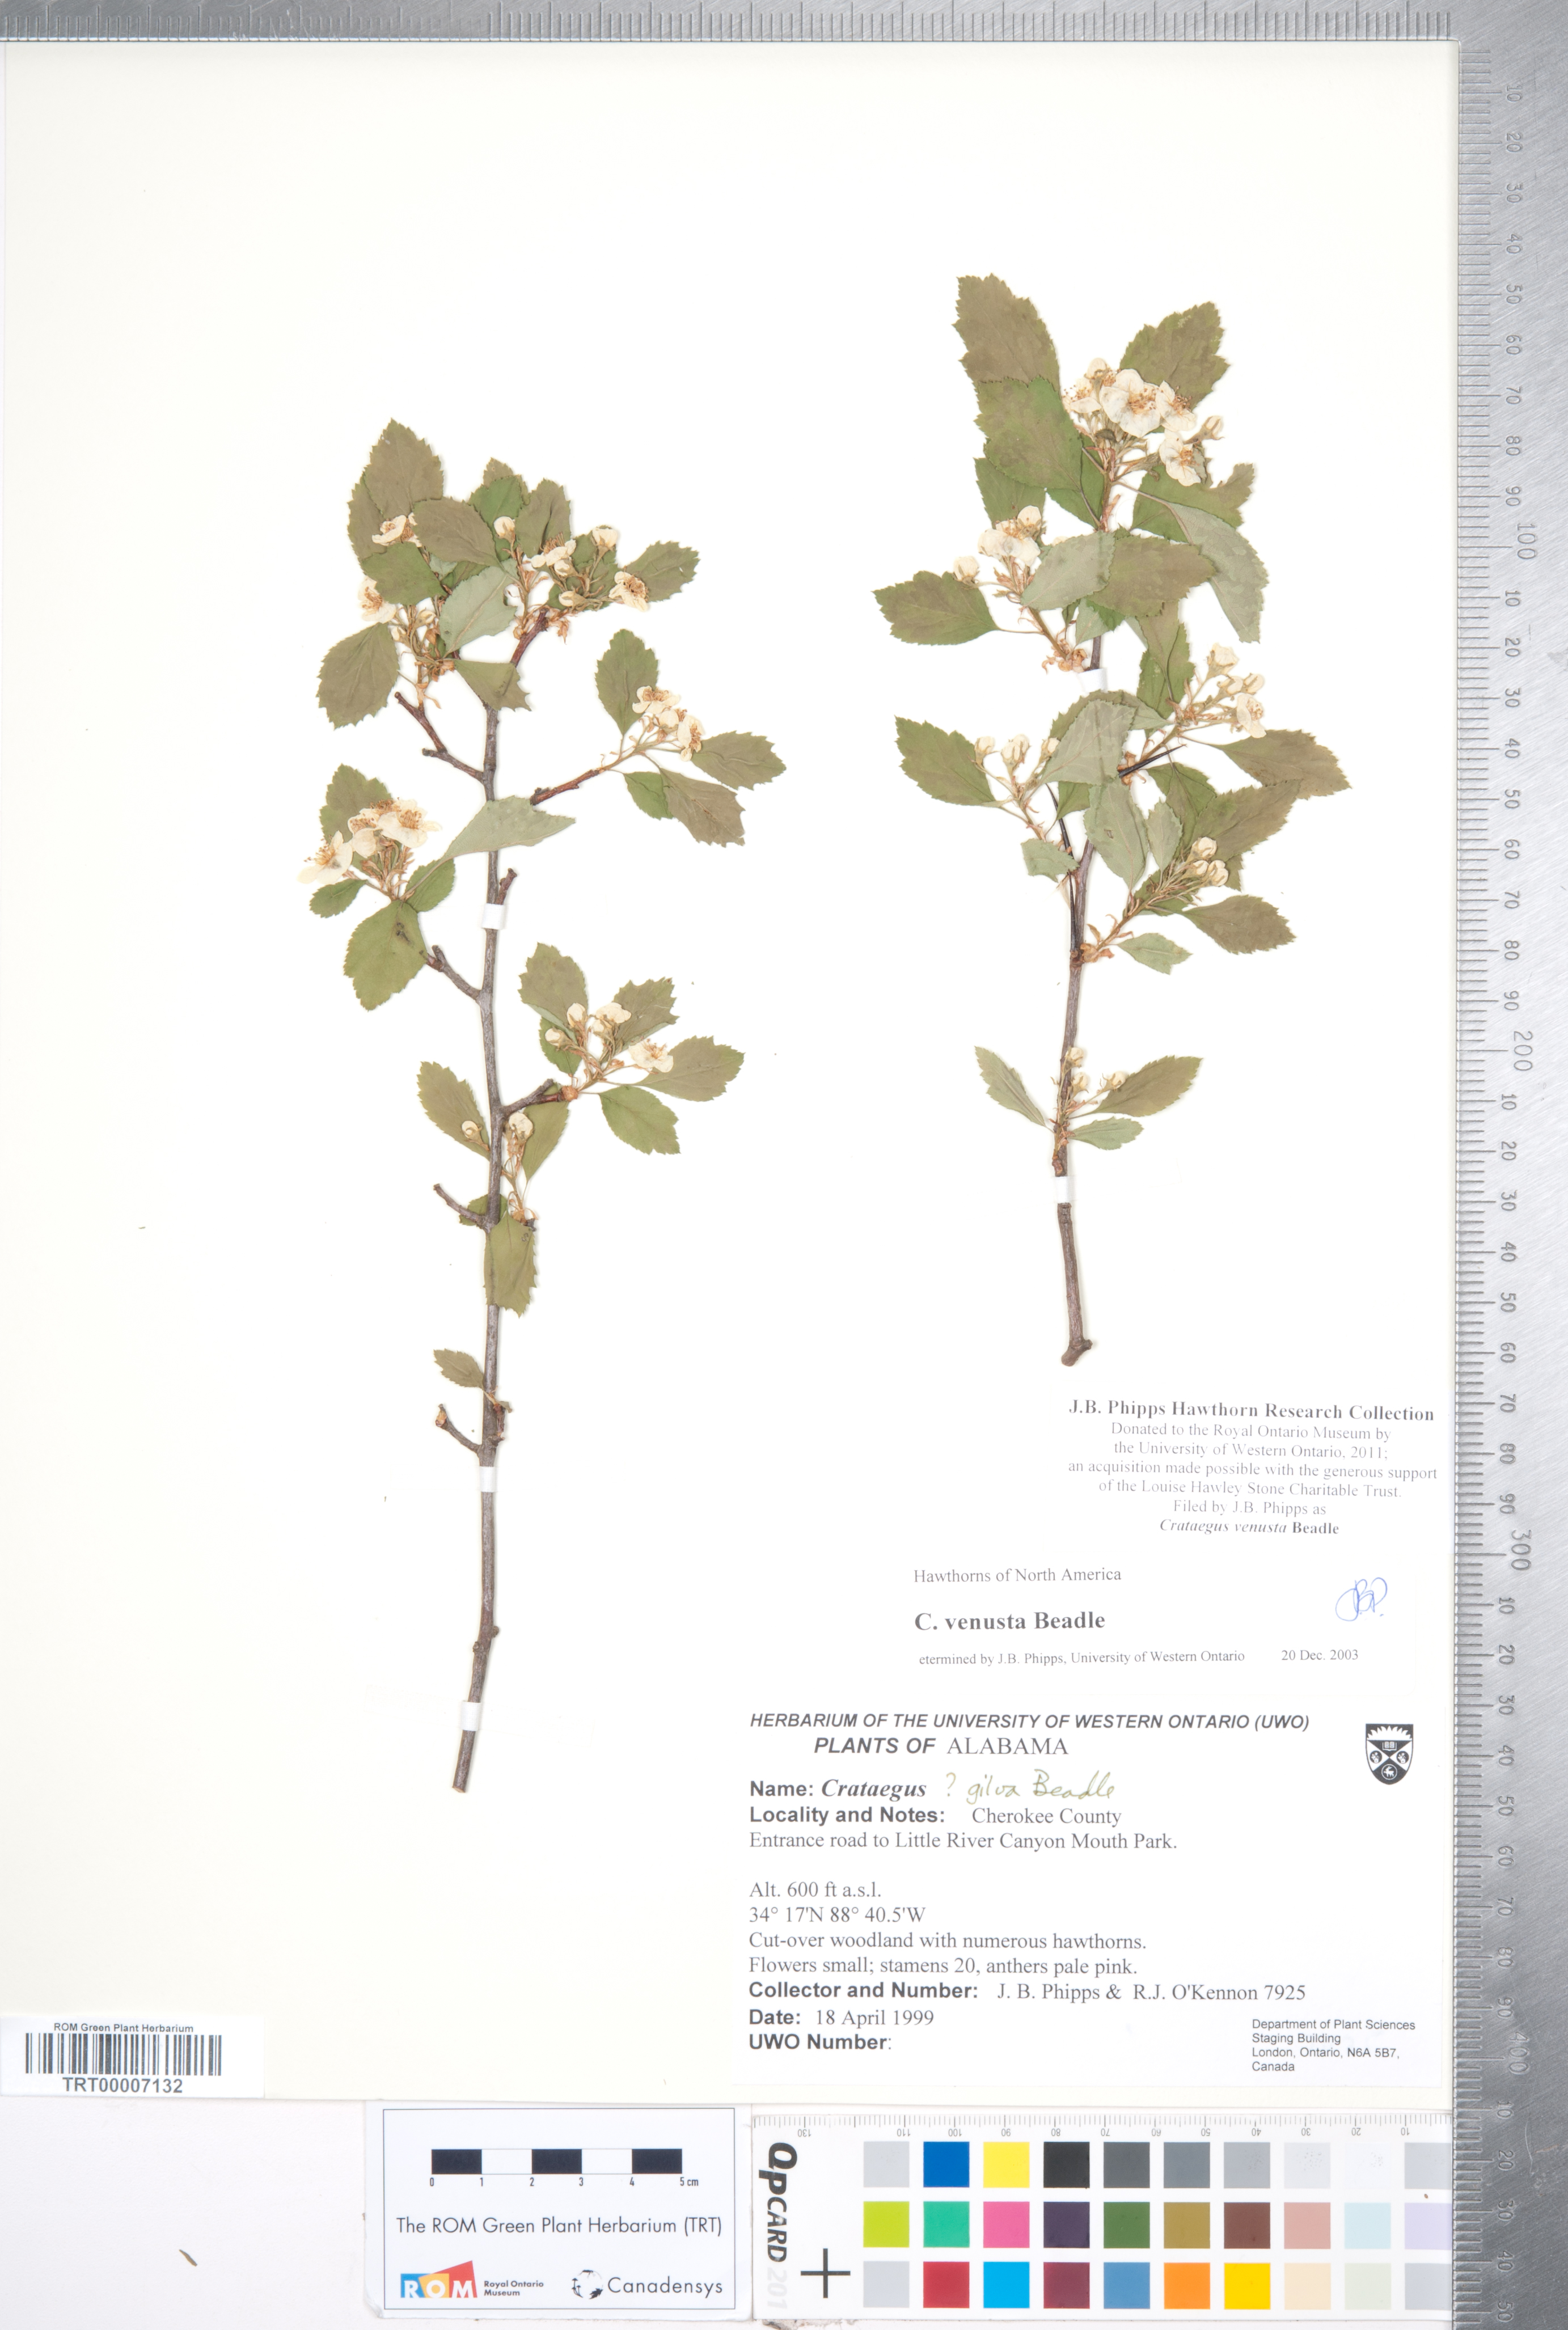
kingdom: Plantae
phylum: Tracheophyta
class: Magnoliopsida
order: Rosales
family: Rosaceae
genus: Crataegus
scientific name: Crataegus venusta
